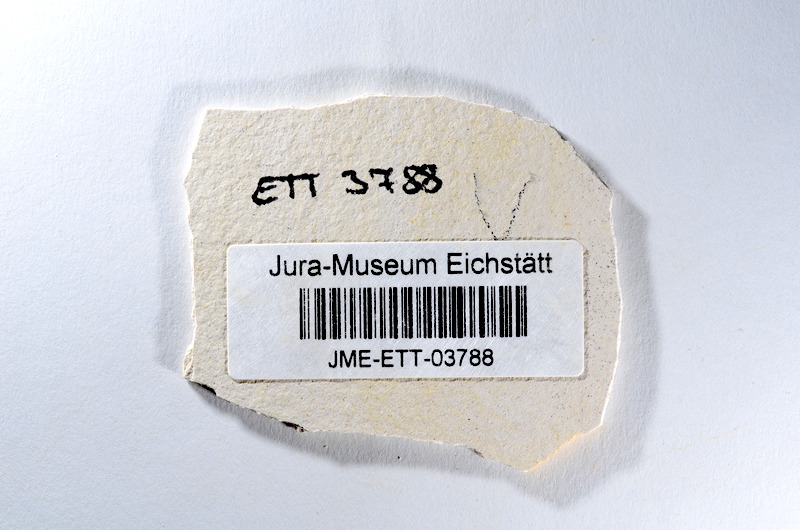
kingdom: Animalia
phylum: Chordata
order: Salmoniformes
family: Orthogonikleithridae
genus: Orthogonikleithrus
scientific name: Orthogonikleithrus hoelli
